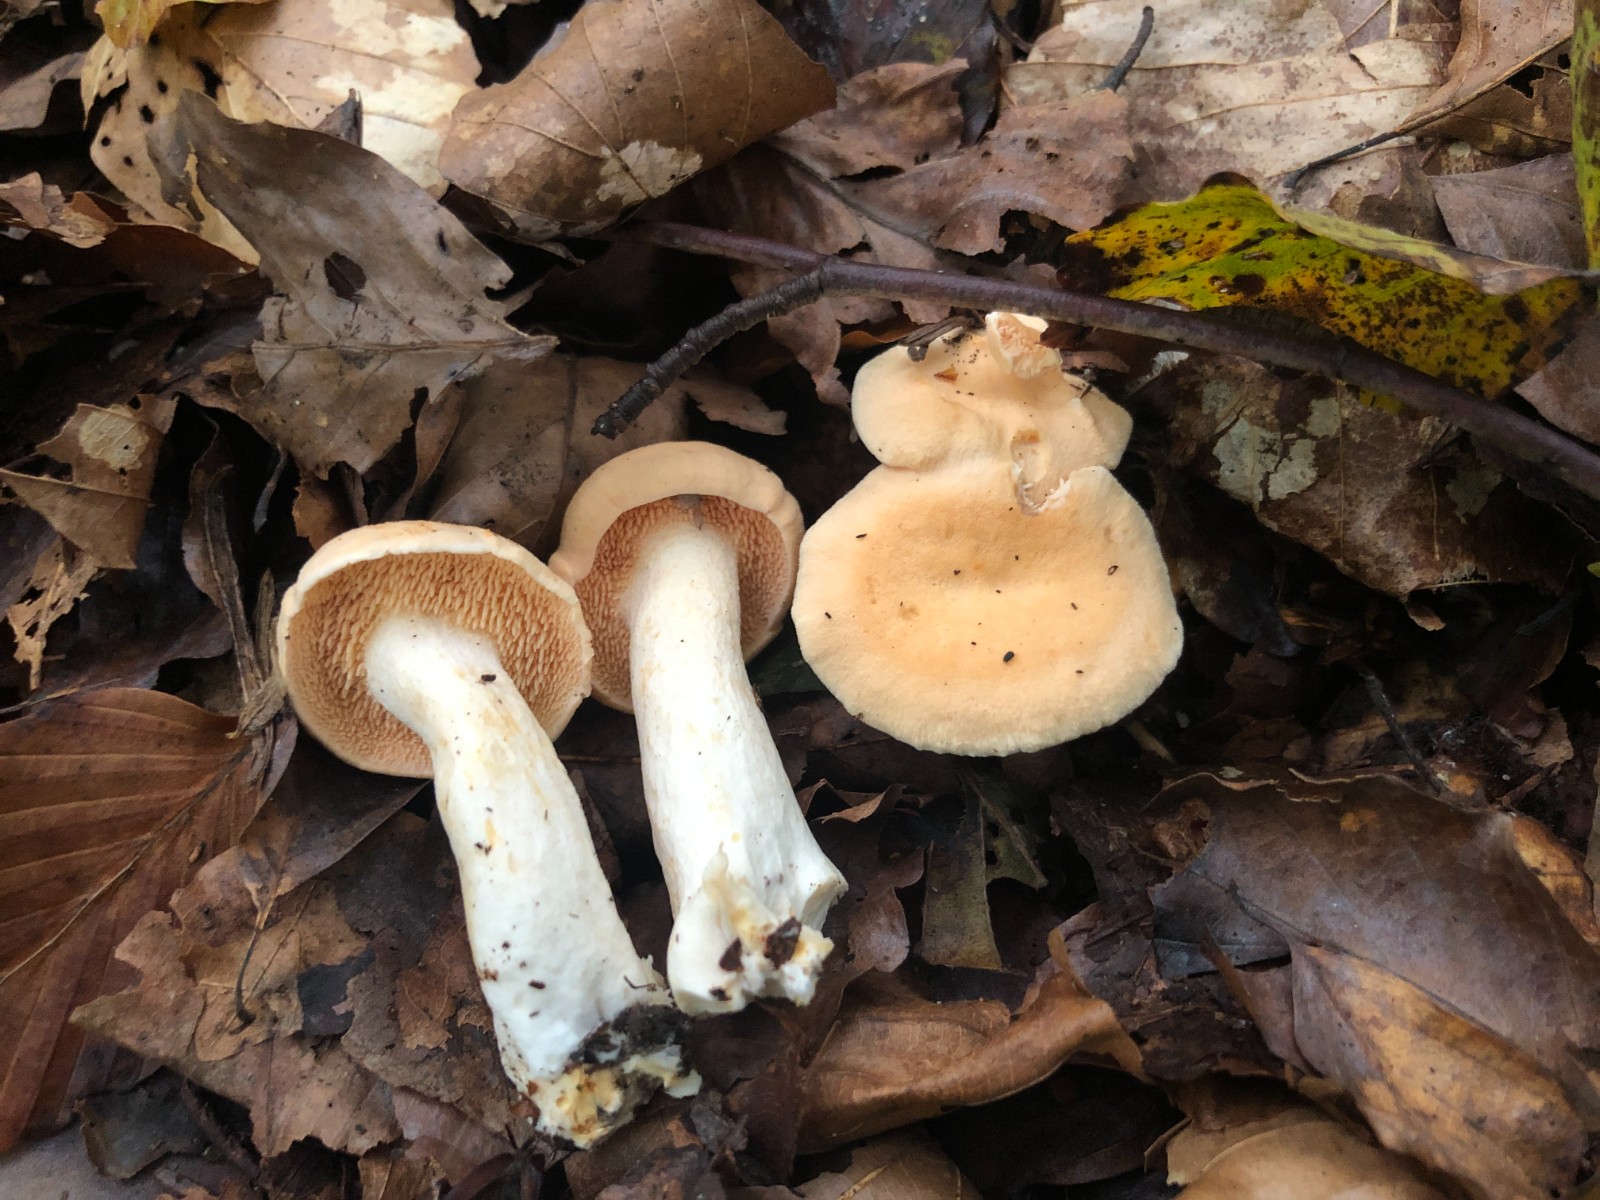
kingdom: Fungi
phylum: Basidiomycota
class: Agaricomycetes
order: Cantharellales
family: Hydnaceae
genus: Hydnum
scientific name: Hydnum rufescens
